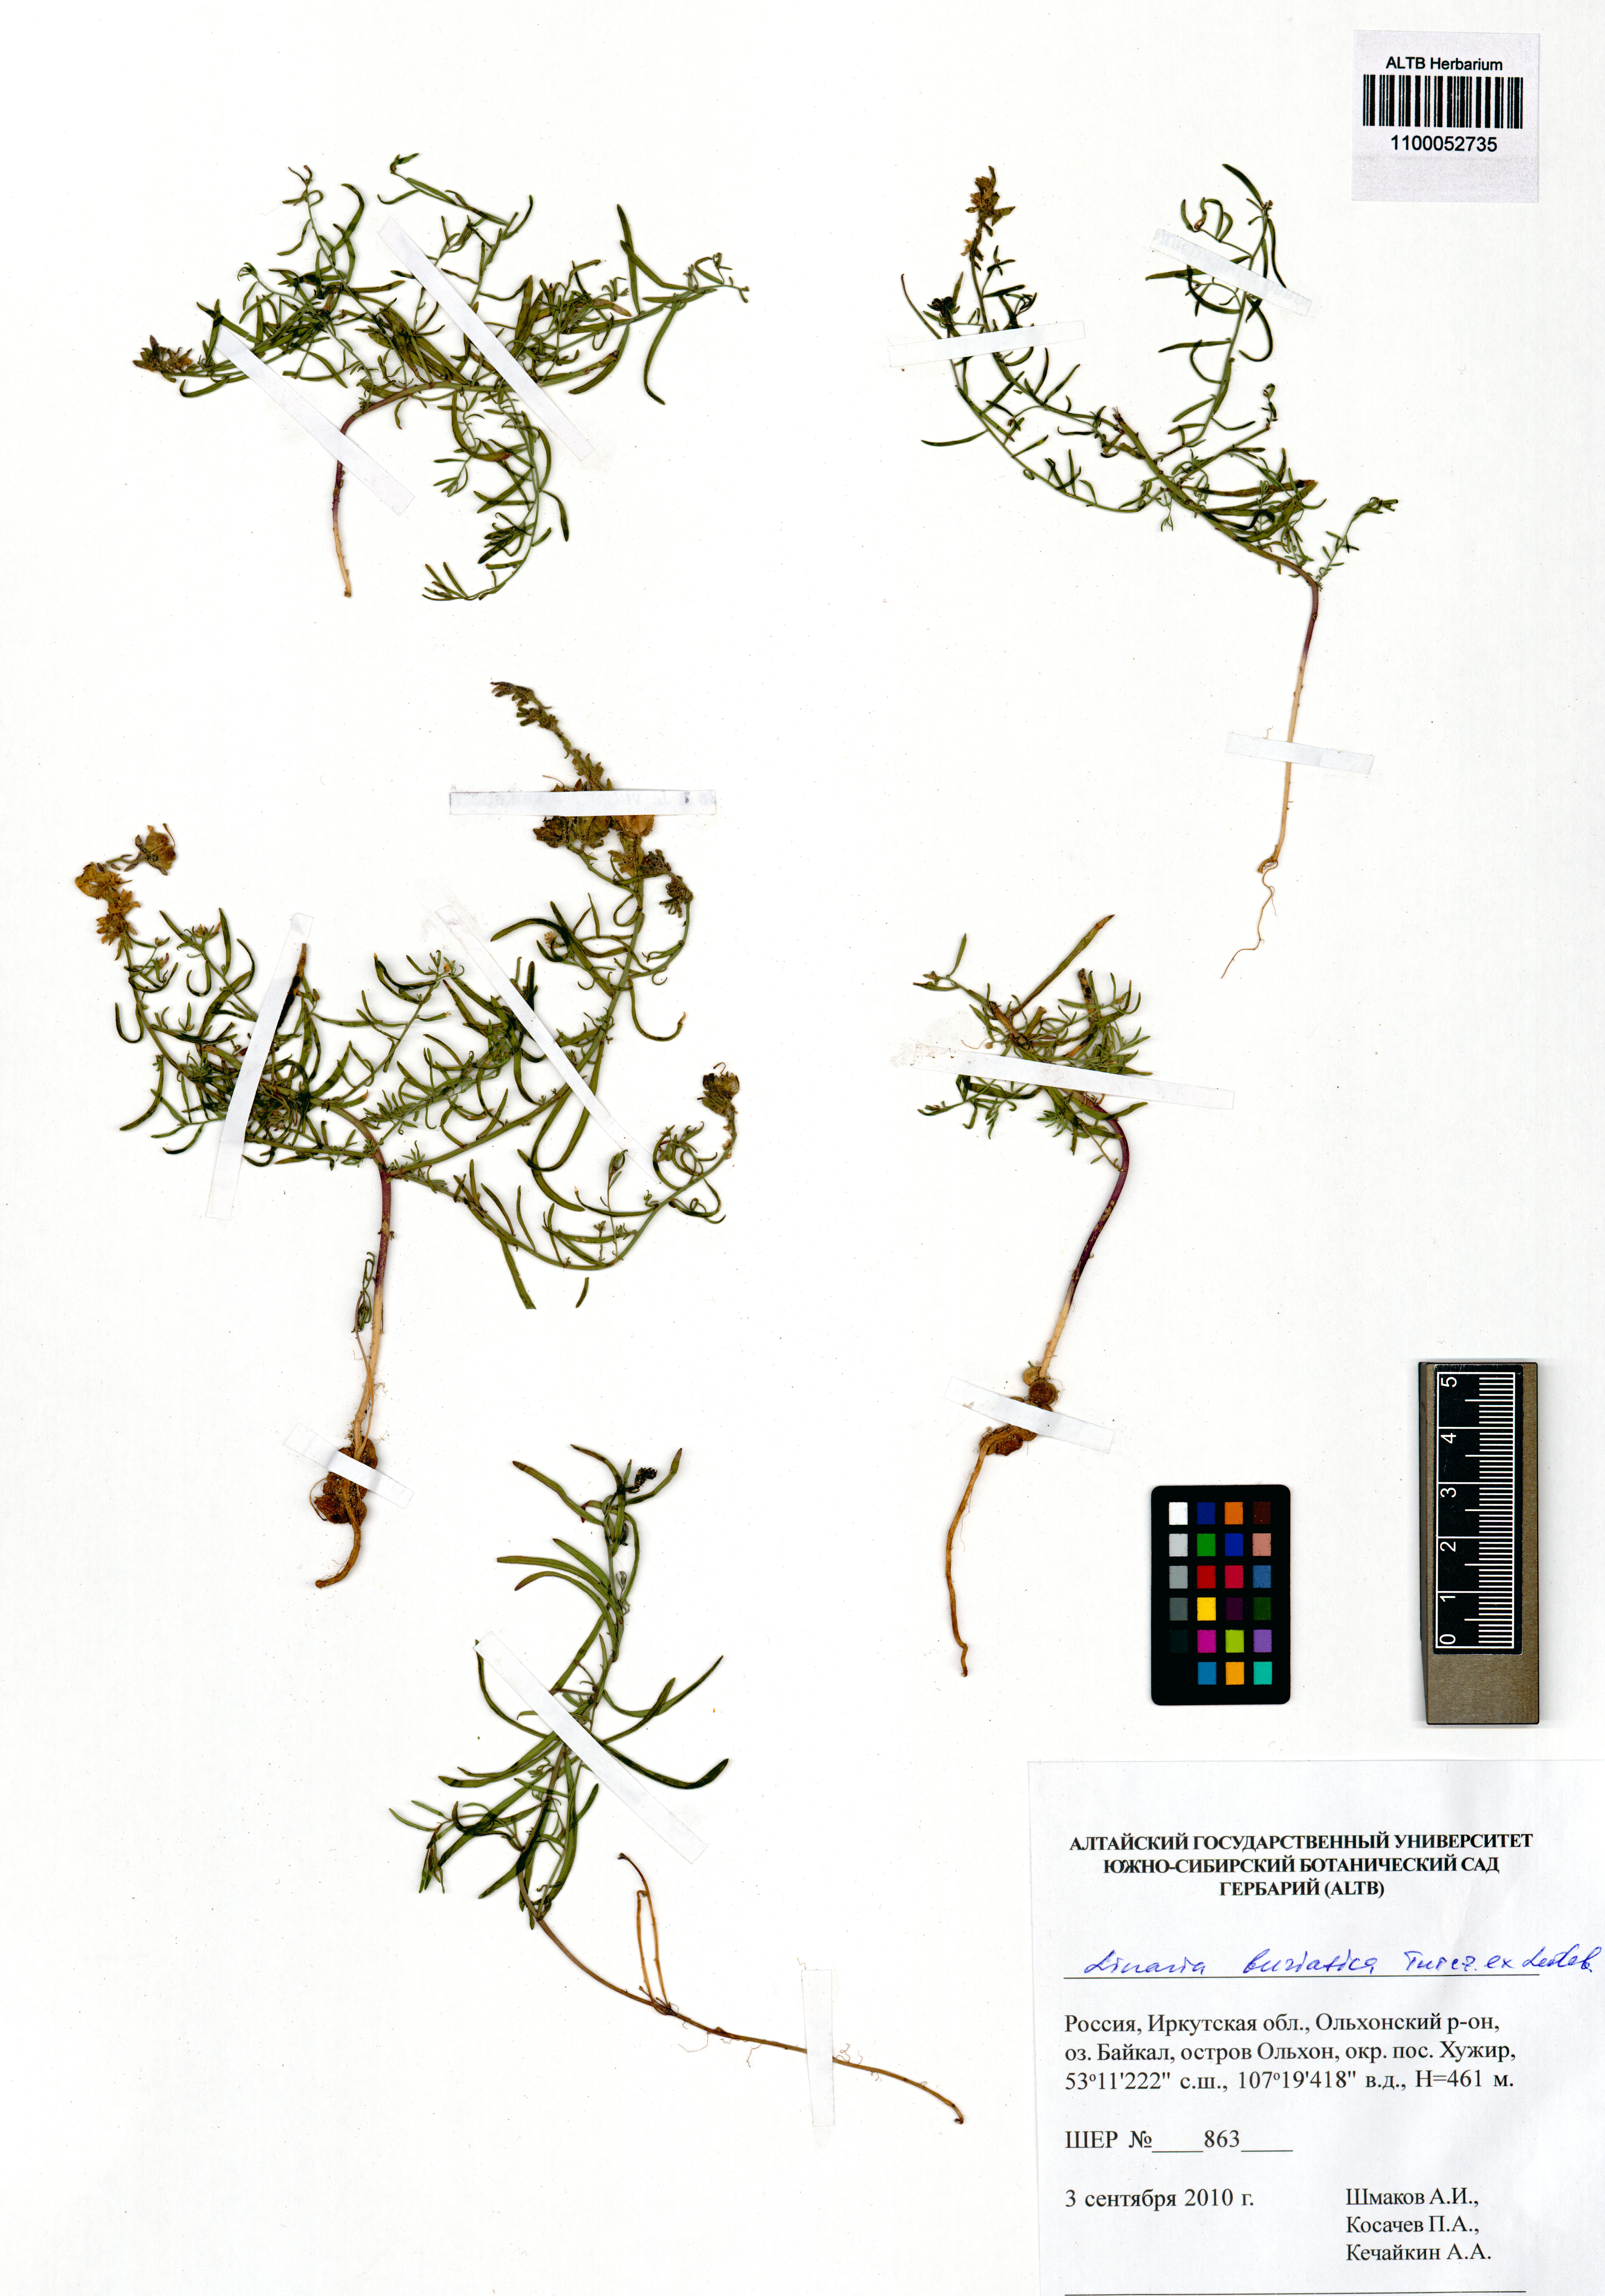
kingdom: Plantae
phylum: Tracheophyta
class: Magnoliopsida
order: Lamiales
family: Plantaginaceae
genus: Linaria
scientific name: Linaria buriatica
